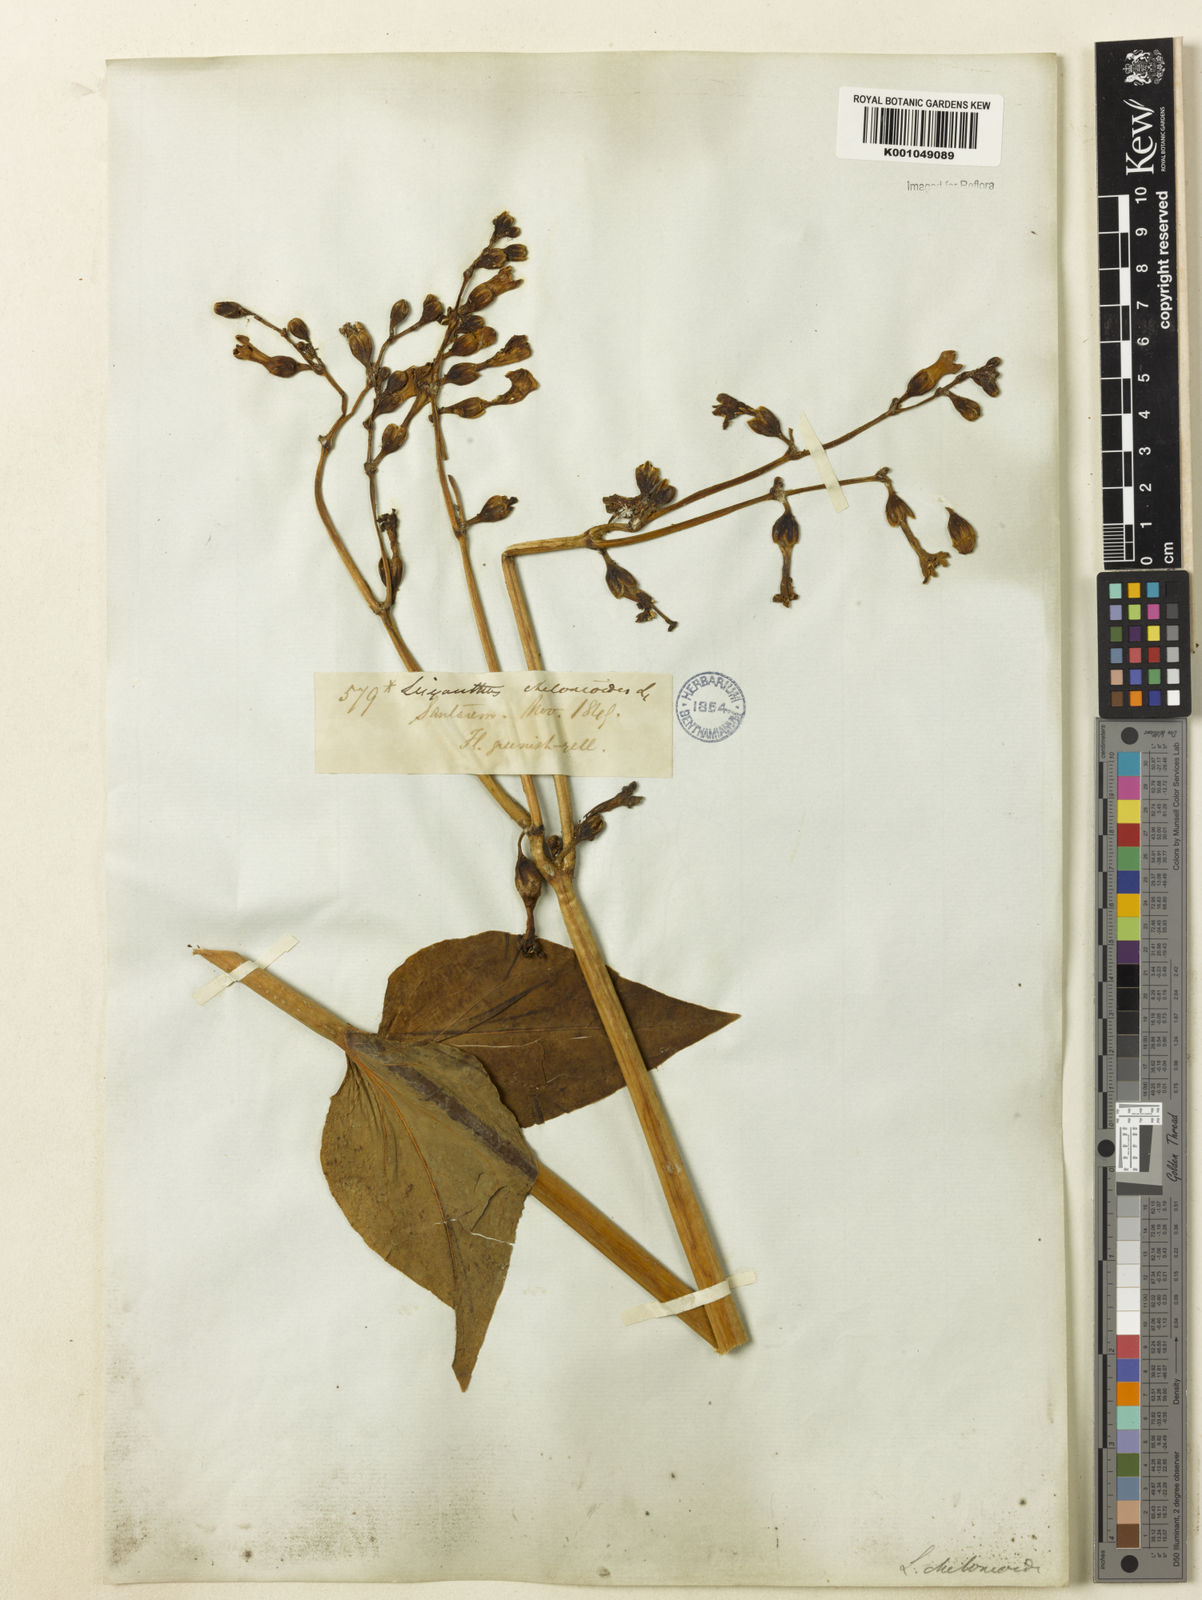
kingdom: Plantae
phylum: Tracheophyta
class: Magnoliopsida
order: Gentianales
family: Gentianaceae
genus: Chelonanthus
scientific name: Chelonanthus grandiflorus
